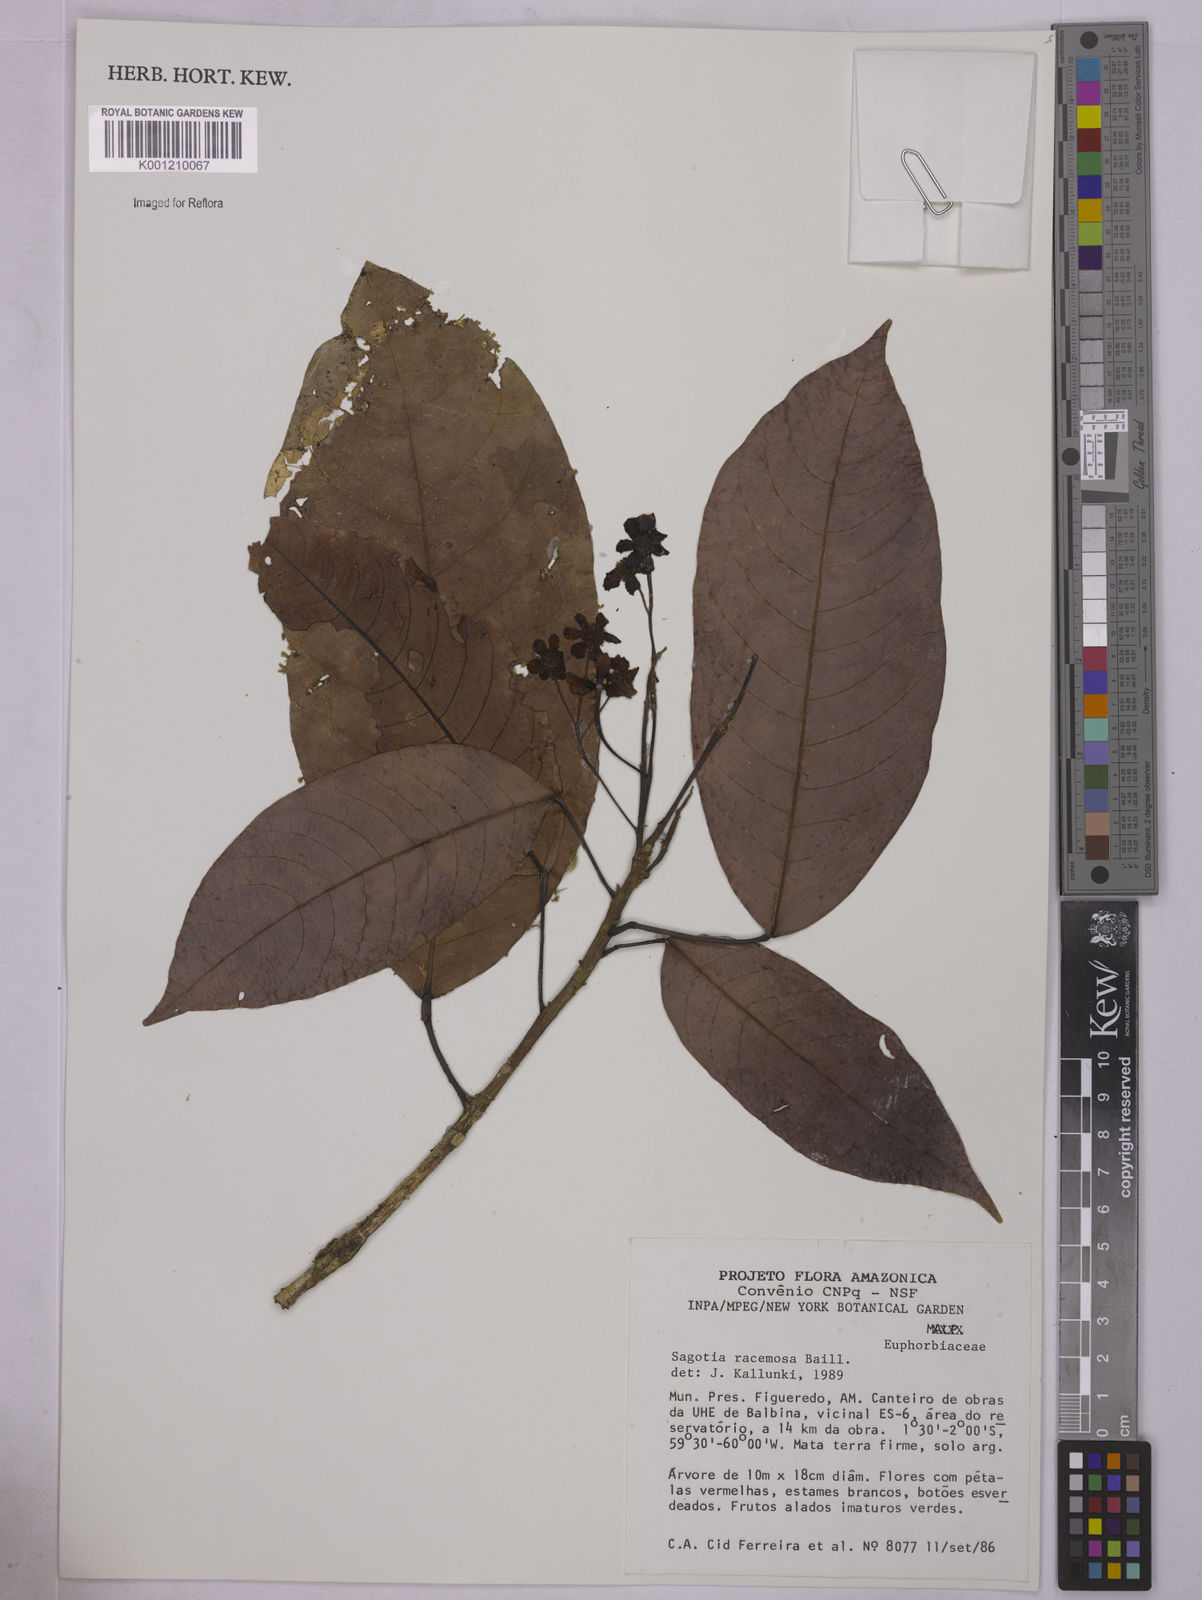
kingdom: Plantae
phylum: Tracheophyta
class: Magnoliopsida
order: Malpighiales
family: Euphorbiaceae
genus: Sagotia
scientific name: Sagotia racemosa
